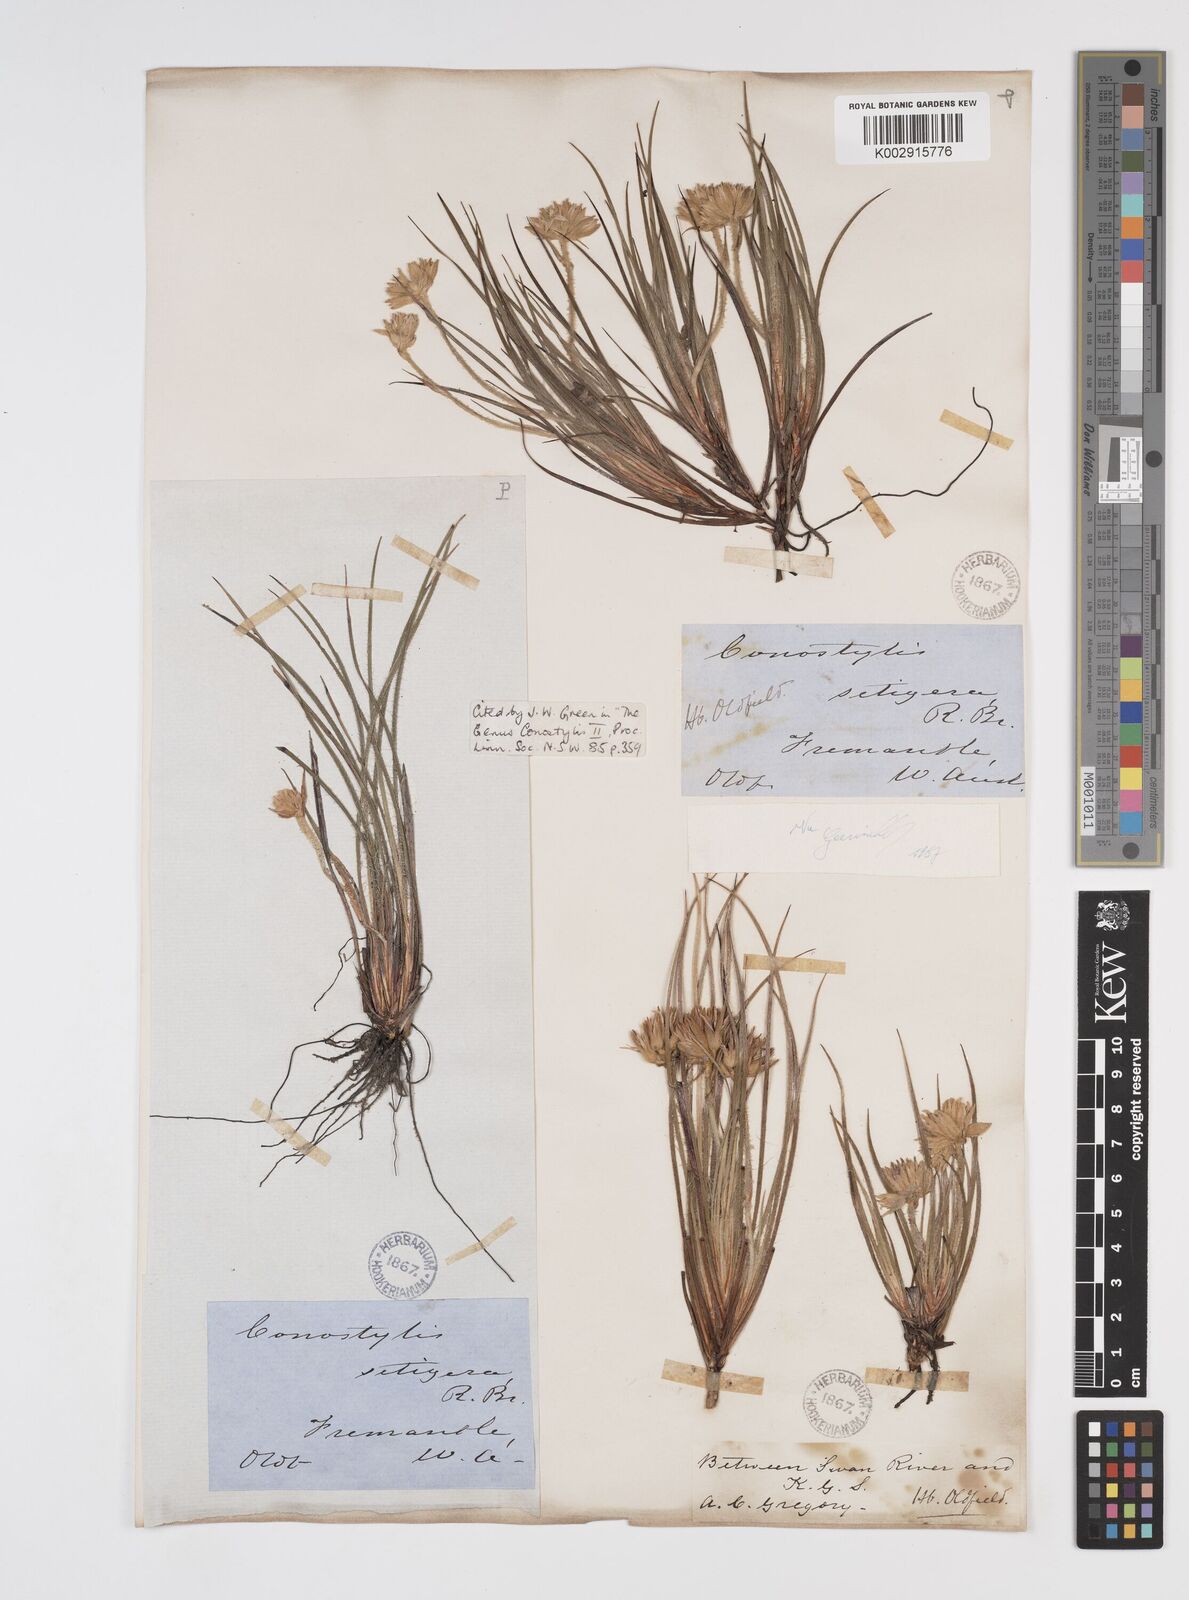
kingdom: Plantae
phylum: Tracheophyta
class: Liliopsida
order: Commelinales
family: Haemodoraceae
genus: Conostylis
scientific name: Conostylis setigera
